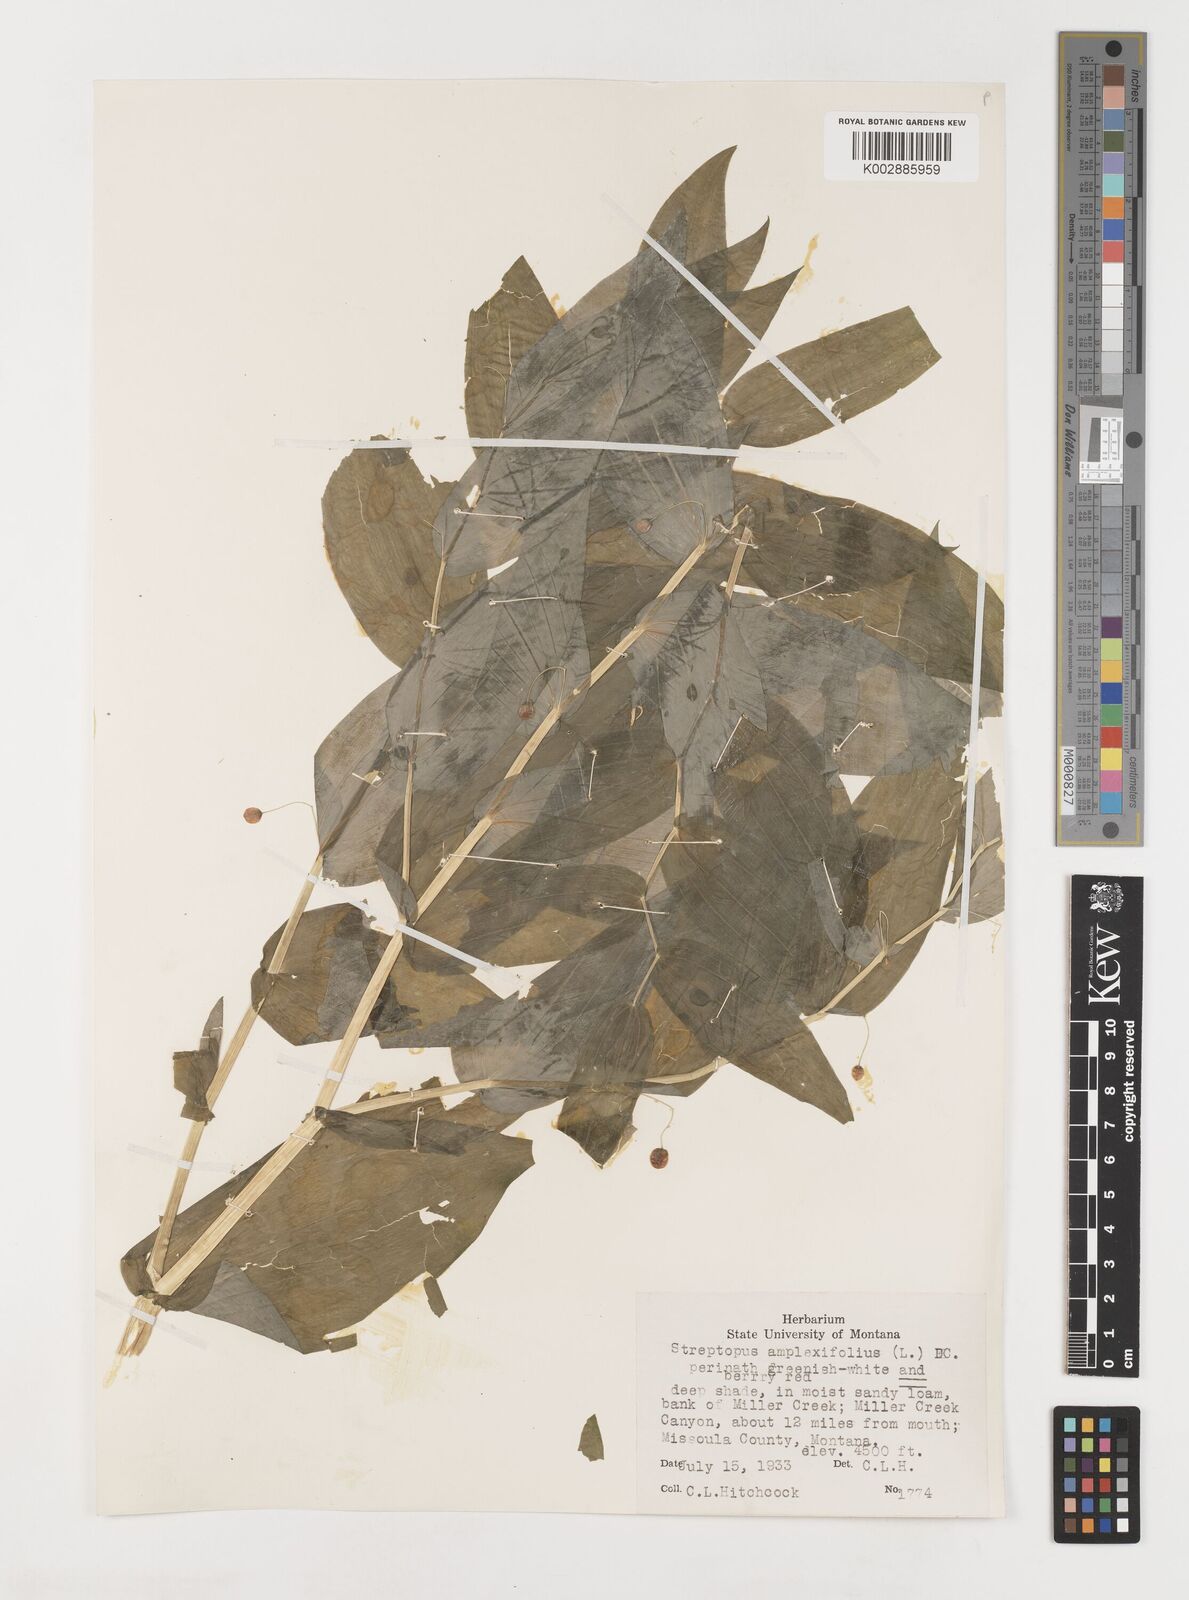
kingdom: Plantae
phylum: Tracheophyta
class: Liliopsida
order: Liliales
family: Liliaceae
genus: Streptopus
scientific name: Streptopus amplexifolius
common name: Clasp twisted stalk
